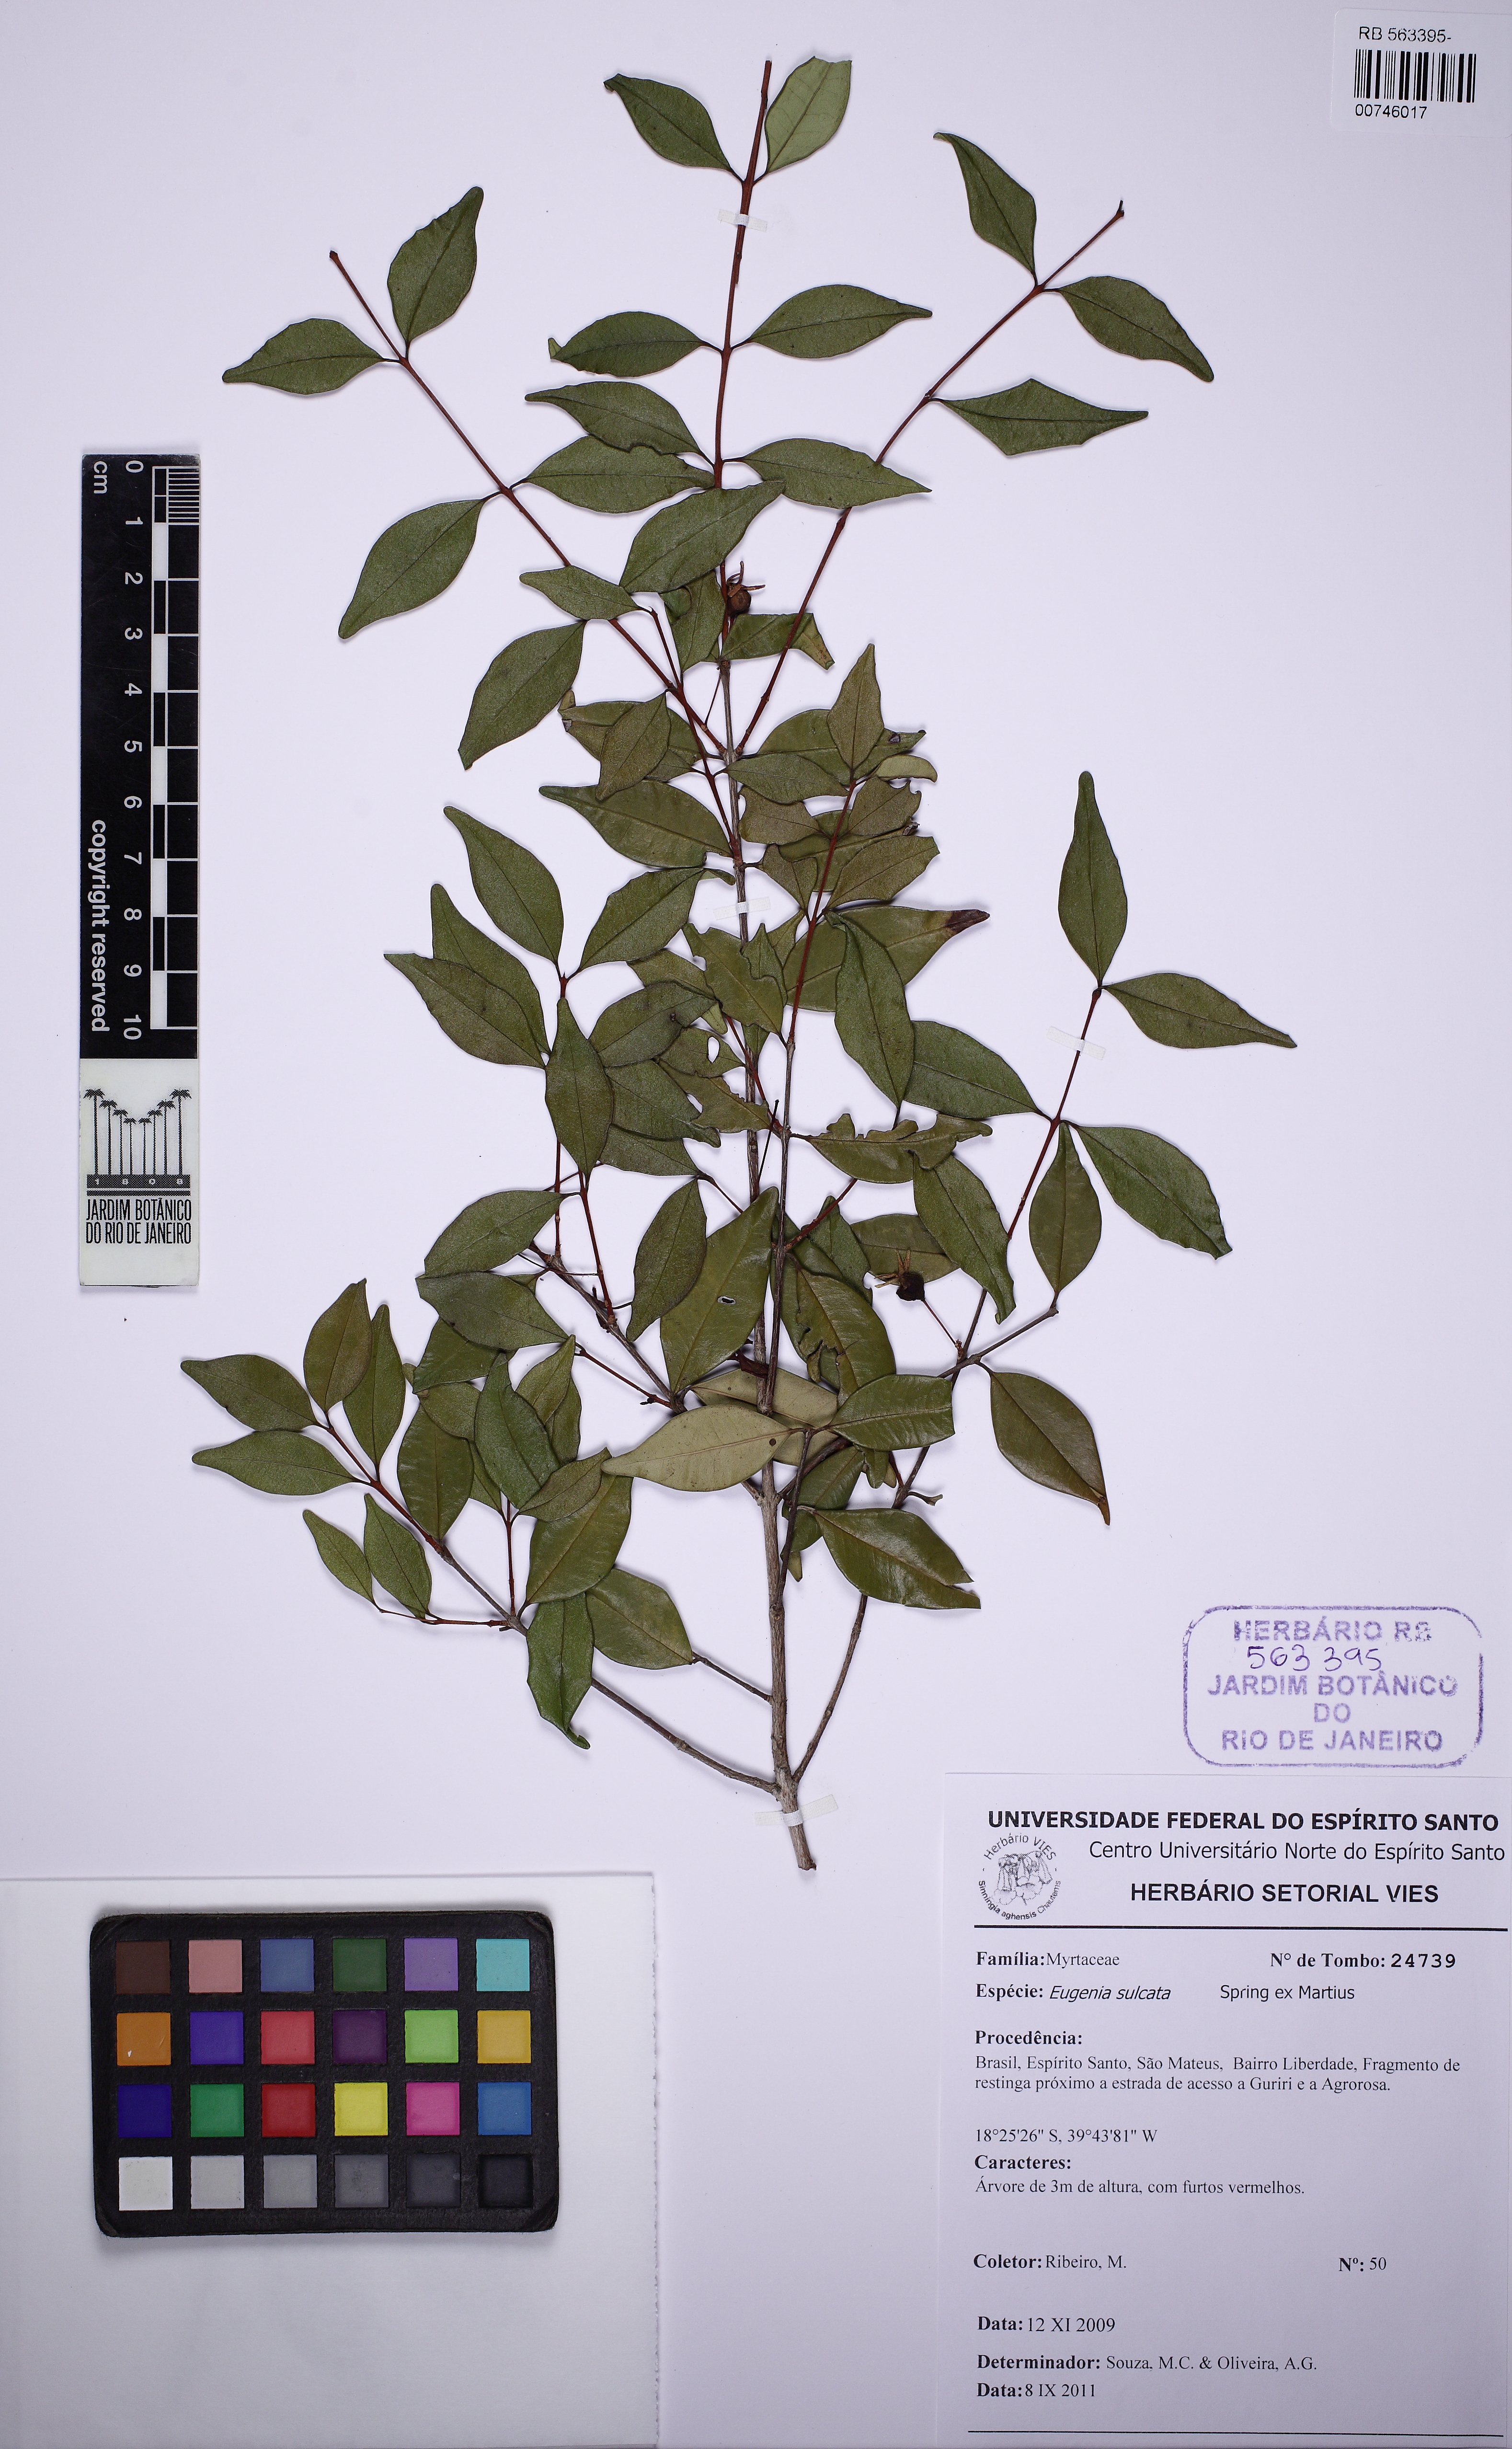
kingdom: Plantae
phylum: Tracheophyta
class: Magnoliopsida
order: Myrtales
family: Myrtaceae
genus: Eugenia
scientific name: Eugenia sulcata
